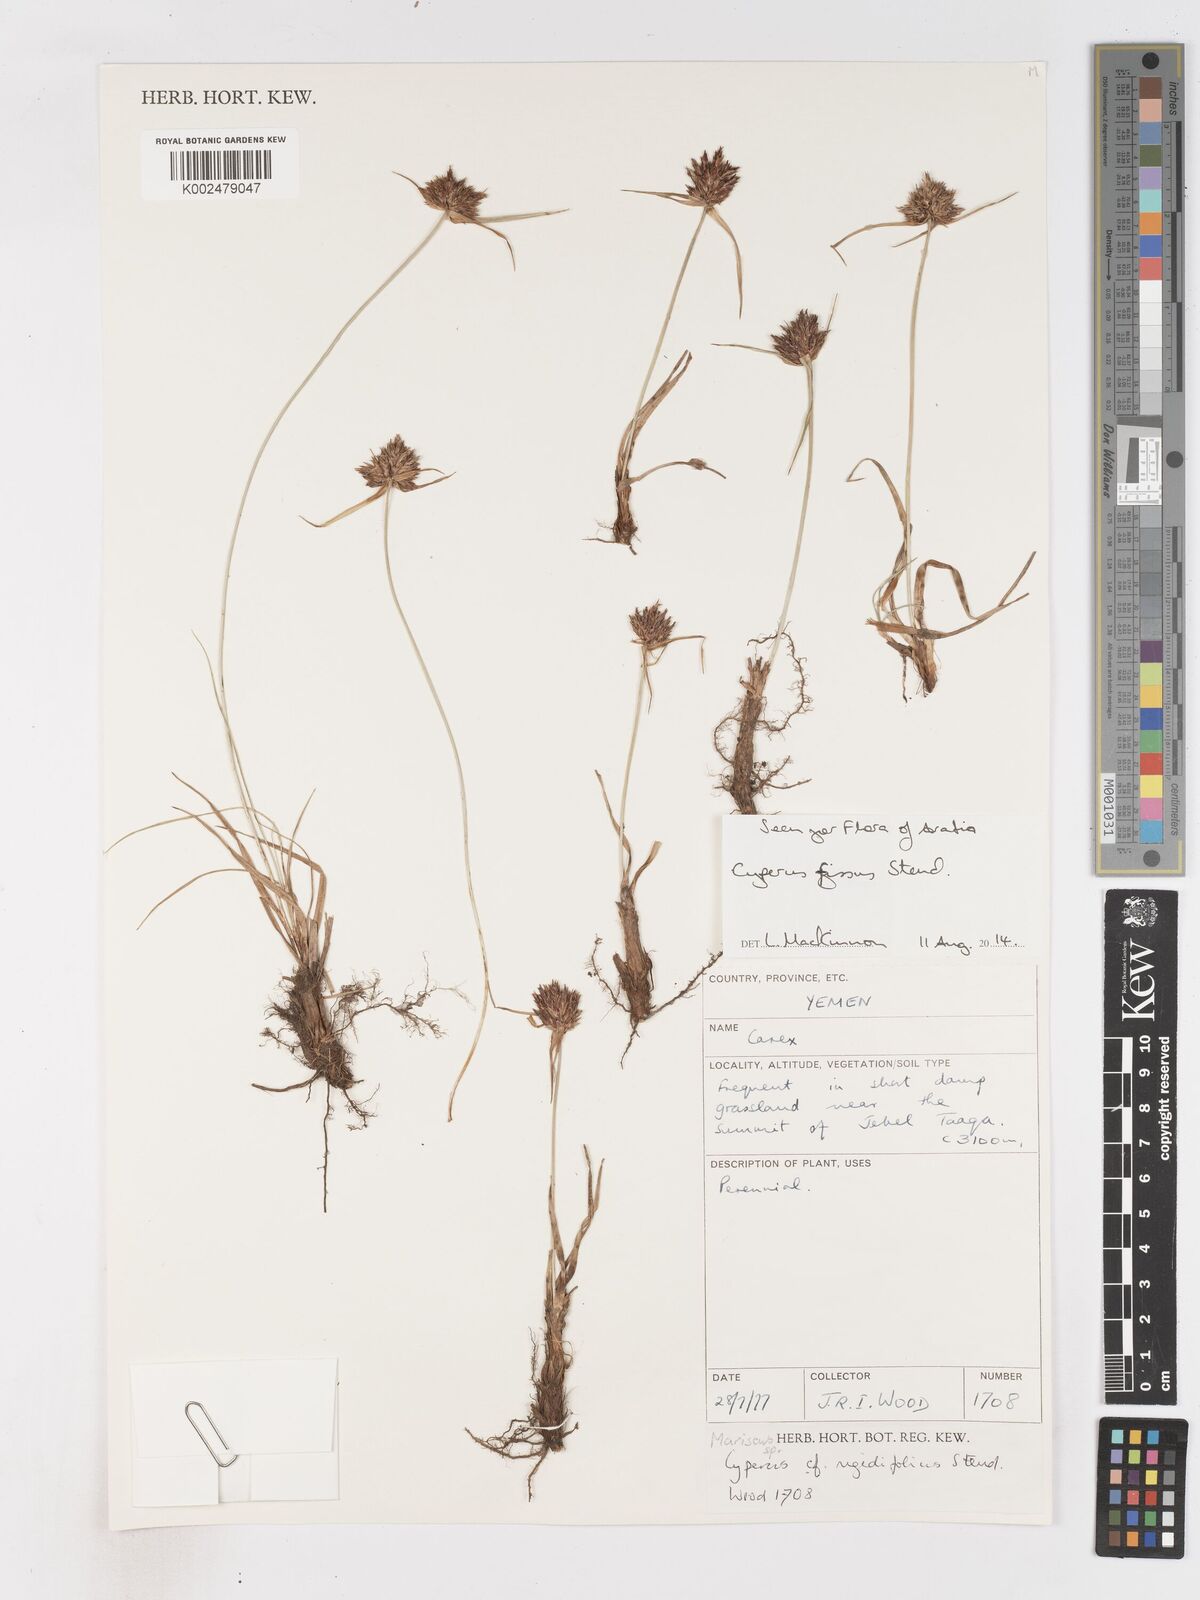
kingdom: Plantae
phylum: Tracheophyta
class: Liliopsida
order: Poales
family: Cyperaceae
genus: Cyperus
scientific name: Cyperus fissus
